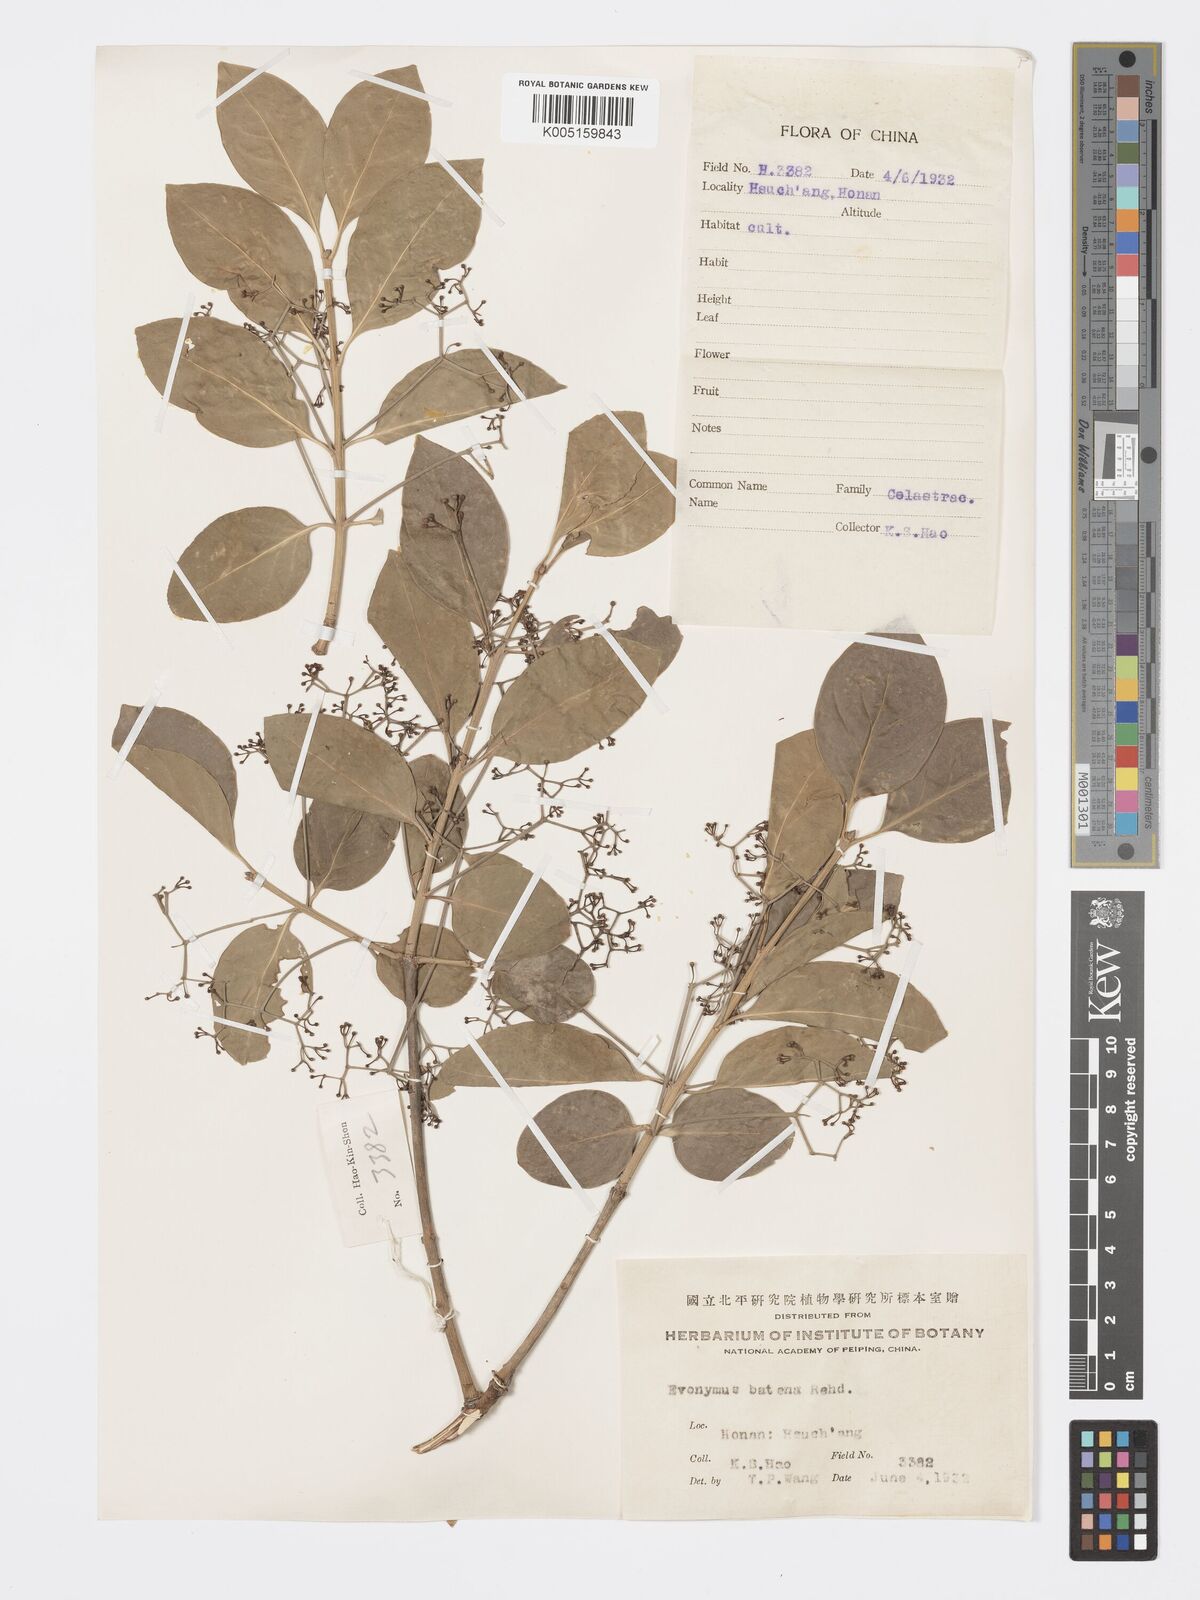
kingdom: Plantae
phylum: Tracheophyta
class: Magnoliopsida
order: Celastrales
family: Celastraceae
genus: Euonymus
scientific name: Euonymus fortunei
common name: Climbing euonymus
